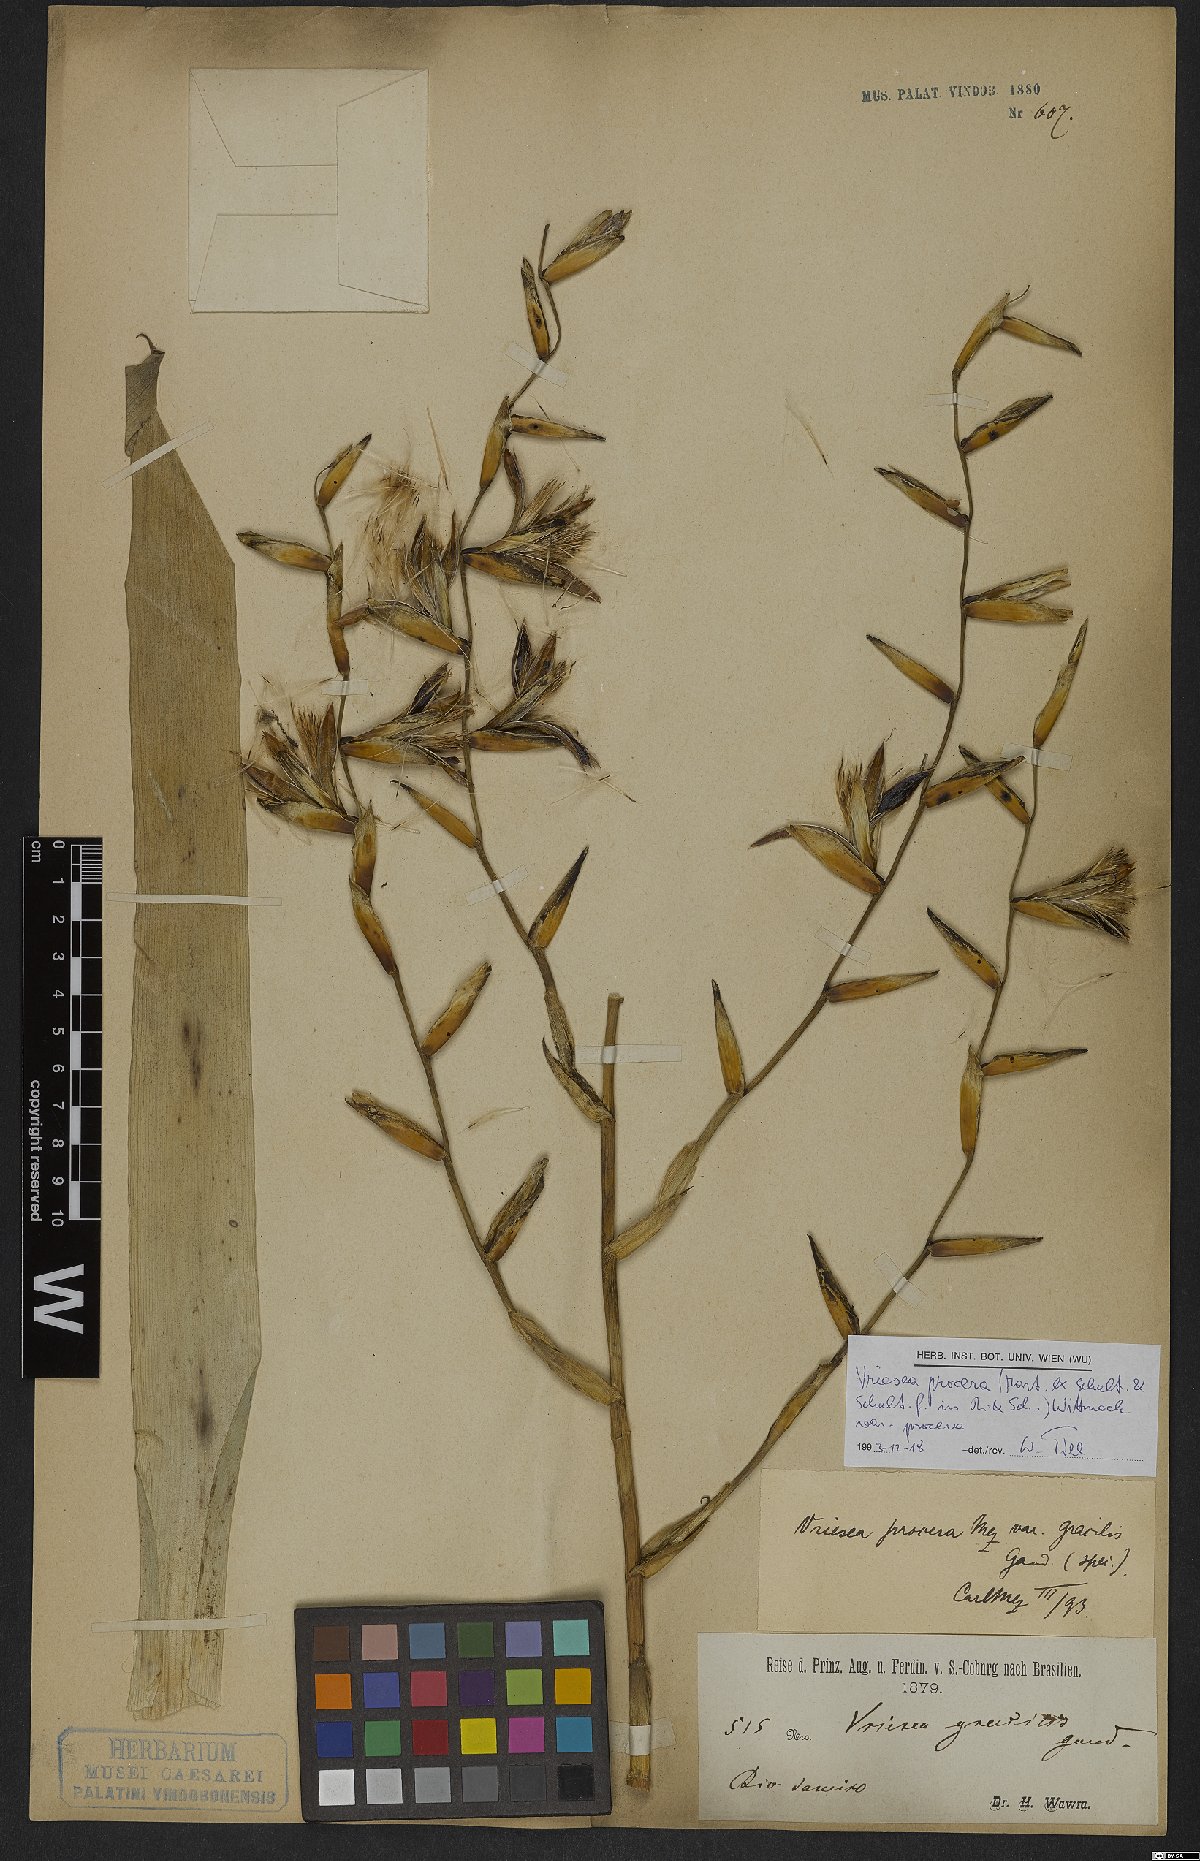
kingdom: Plantae
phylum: Tracheophyta
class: Liliopsida
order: Poales
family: Bromeliaceae
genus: Vriesea
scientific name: Vriesea procera
